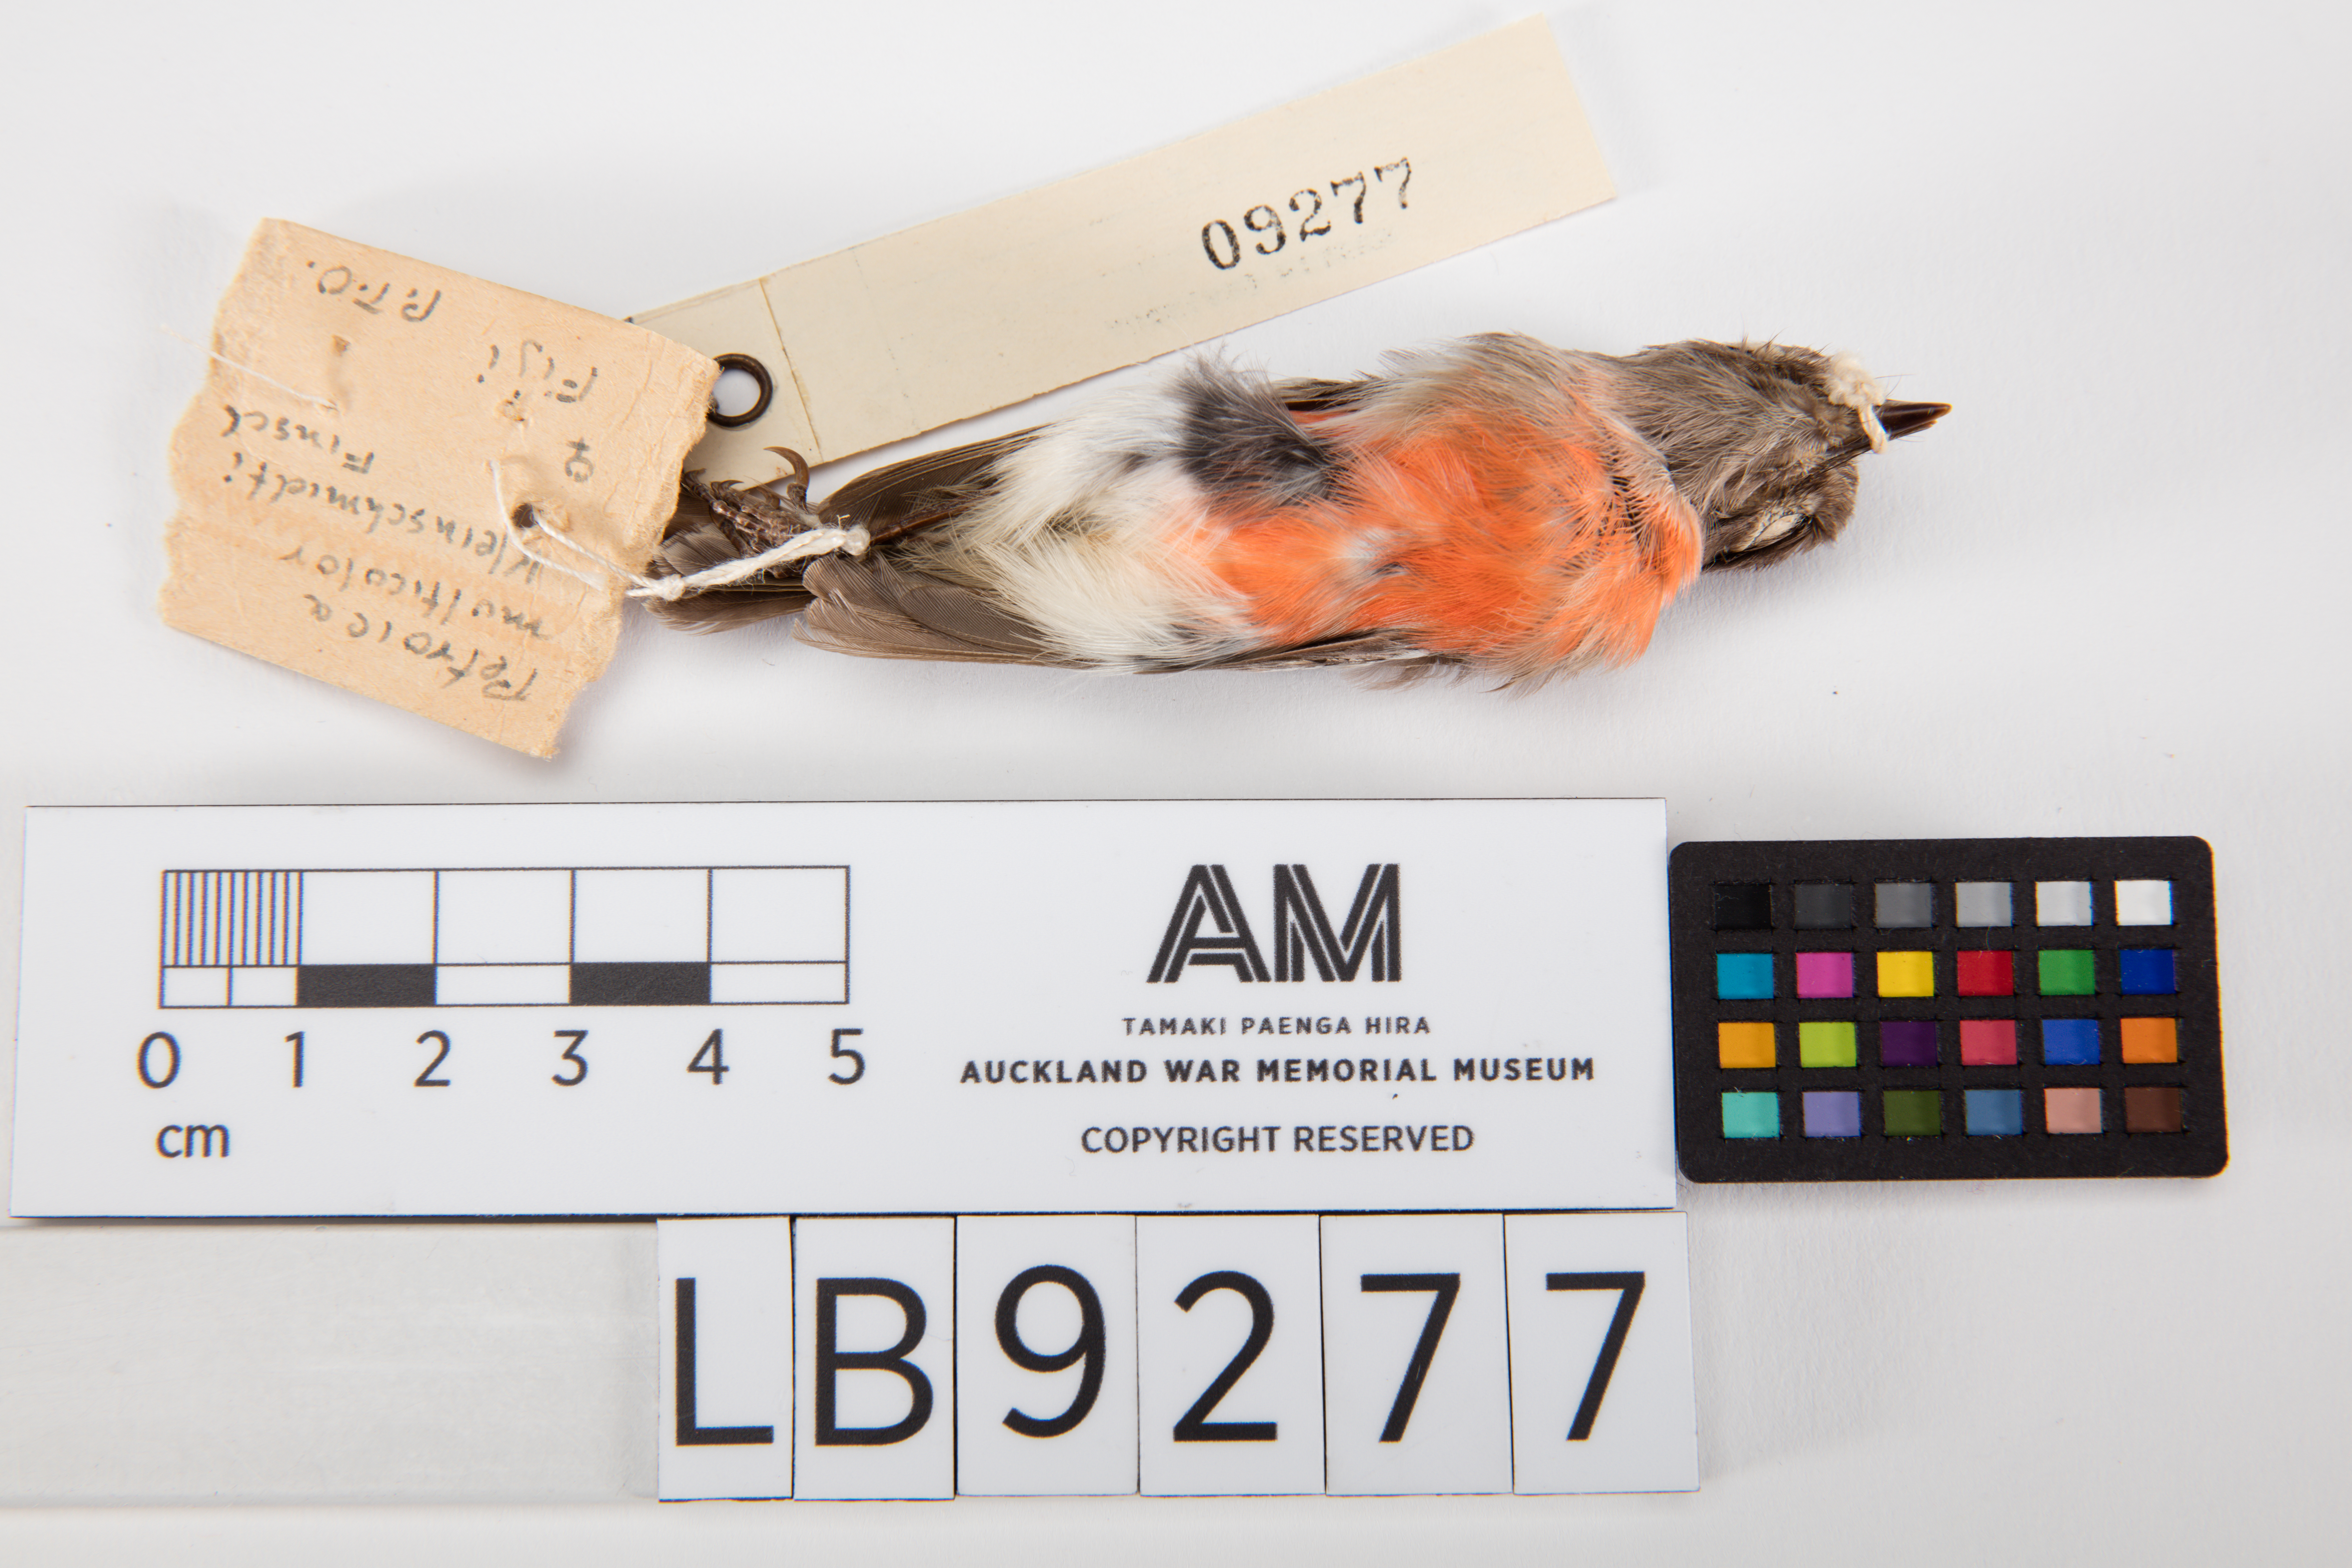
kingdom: Animalia
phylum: Chordata
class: Aves
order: Passeriformes
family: Petroicidae
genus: Petroica
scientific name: Petroica multicolor
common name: Pacific robin
